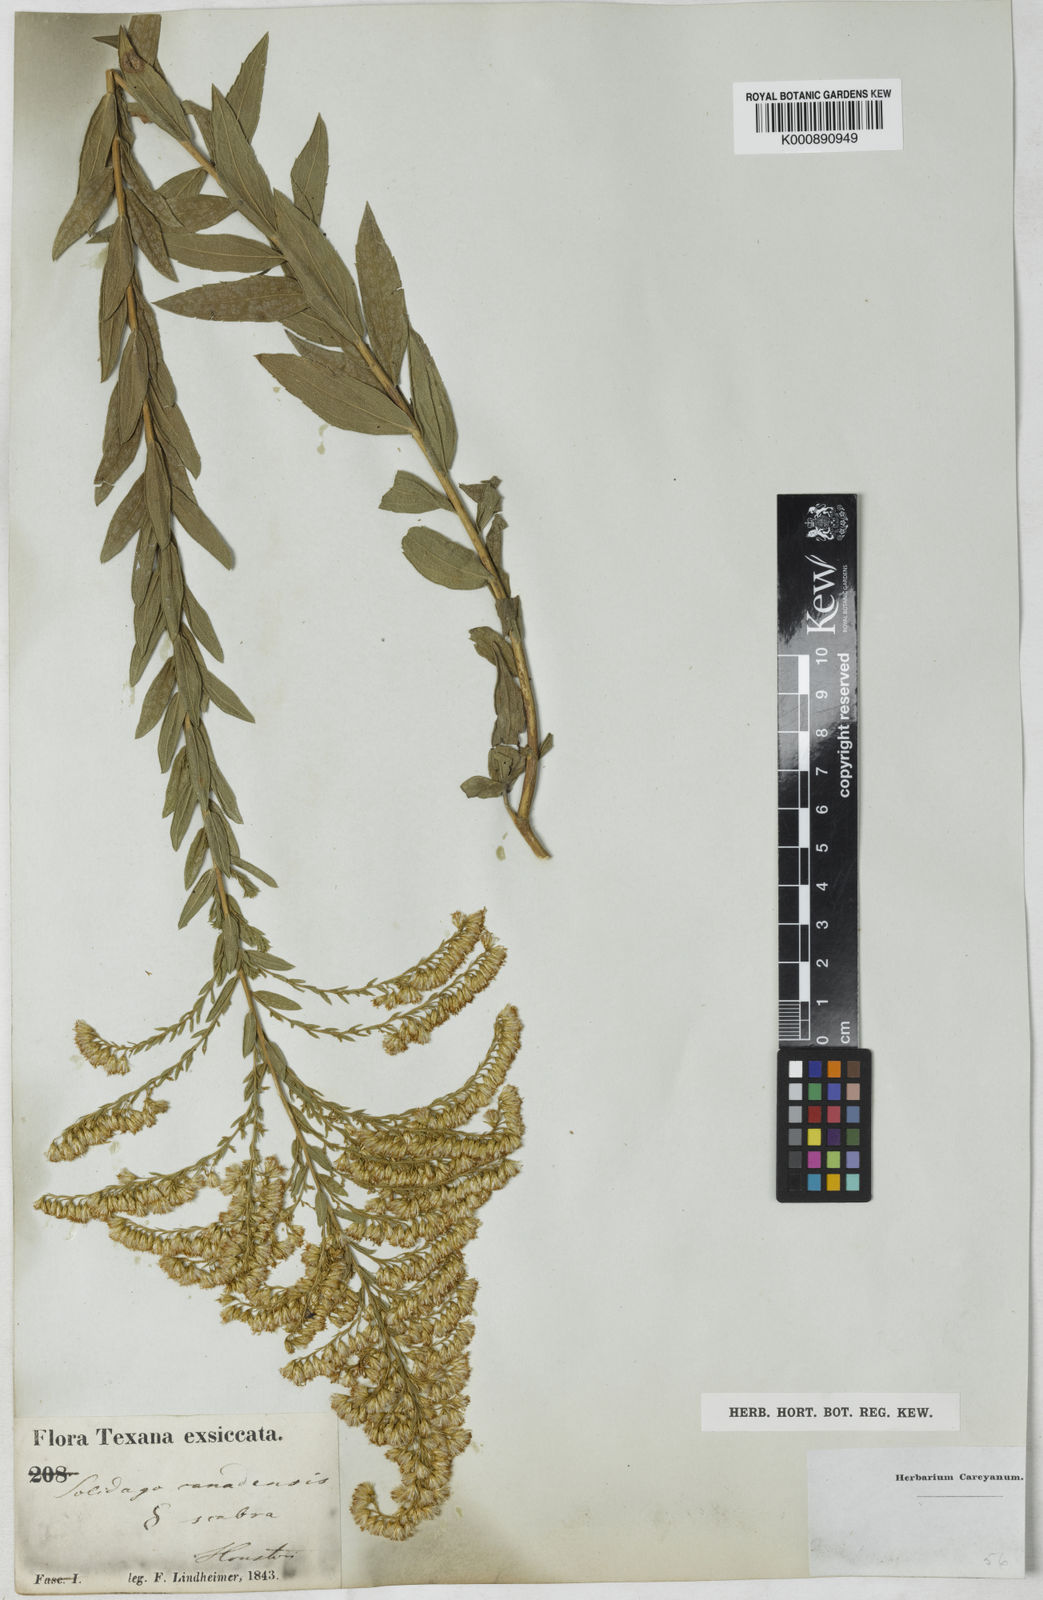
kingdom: Plantae
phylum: Tracheophyta
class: Magnoliopsida
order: Asterales
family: Asteraceae
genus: Solidago
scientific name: Solidago altissima
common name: Late goldenrod
